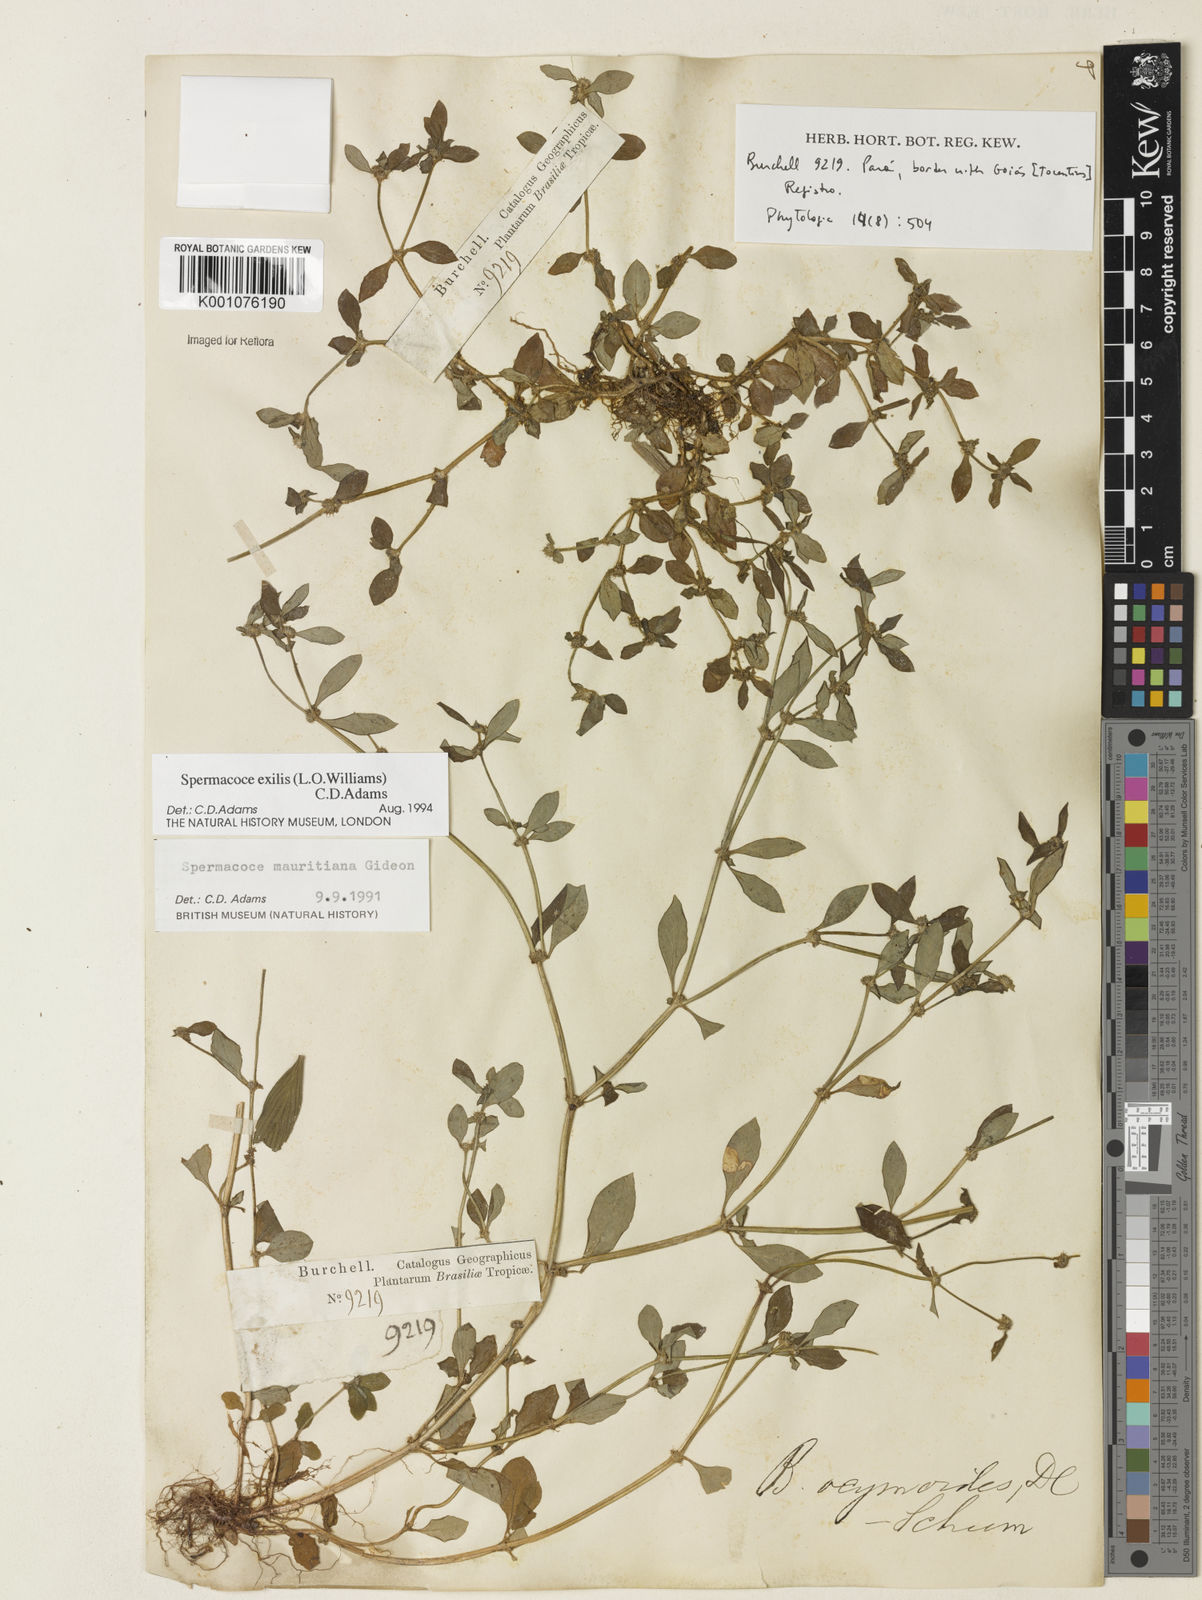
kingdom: Plantae
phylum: Tracheophyta
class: Magnoliopsida
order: Gentianales
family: Rubiaceae
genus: Spermacoce
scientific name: Spermacoce exilis
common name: Pacific false buttonweed
